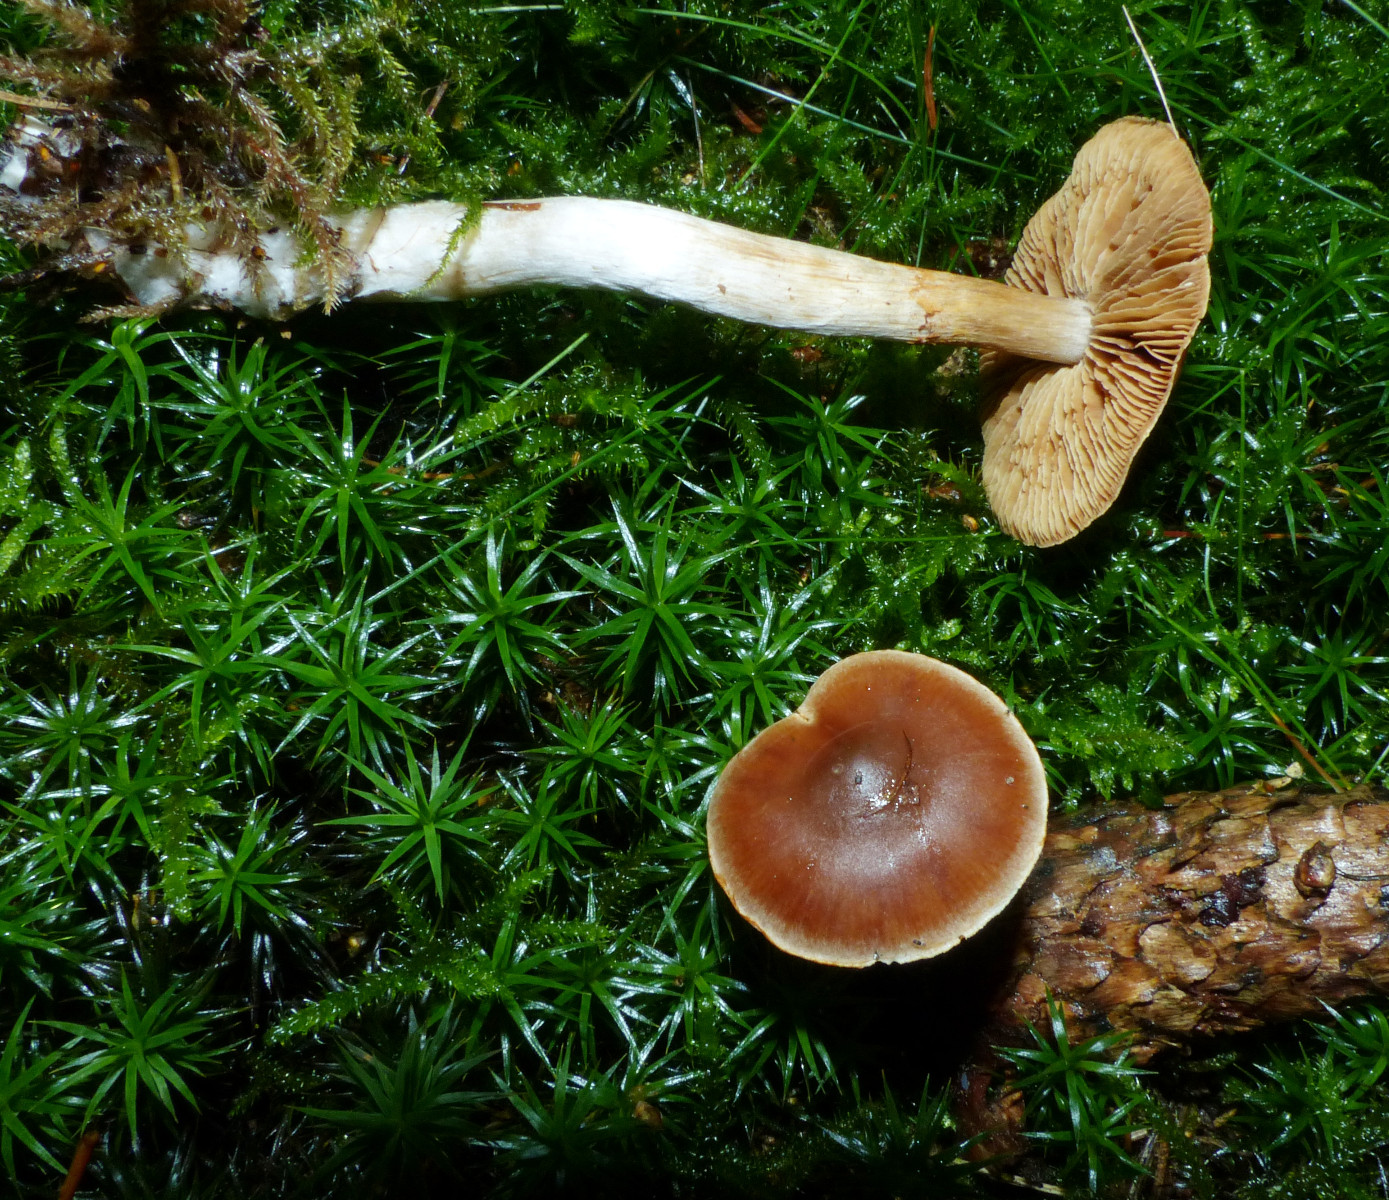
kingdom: Fungi
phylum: Basidiomycota
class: Agaricomycetes
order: Agaricales
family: Cortinariaceae
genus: Cortinarius
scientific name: Cortinarius
